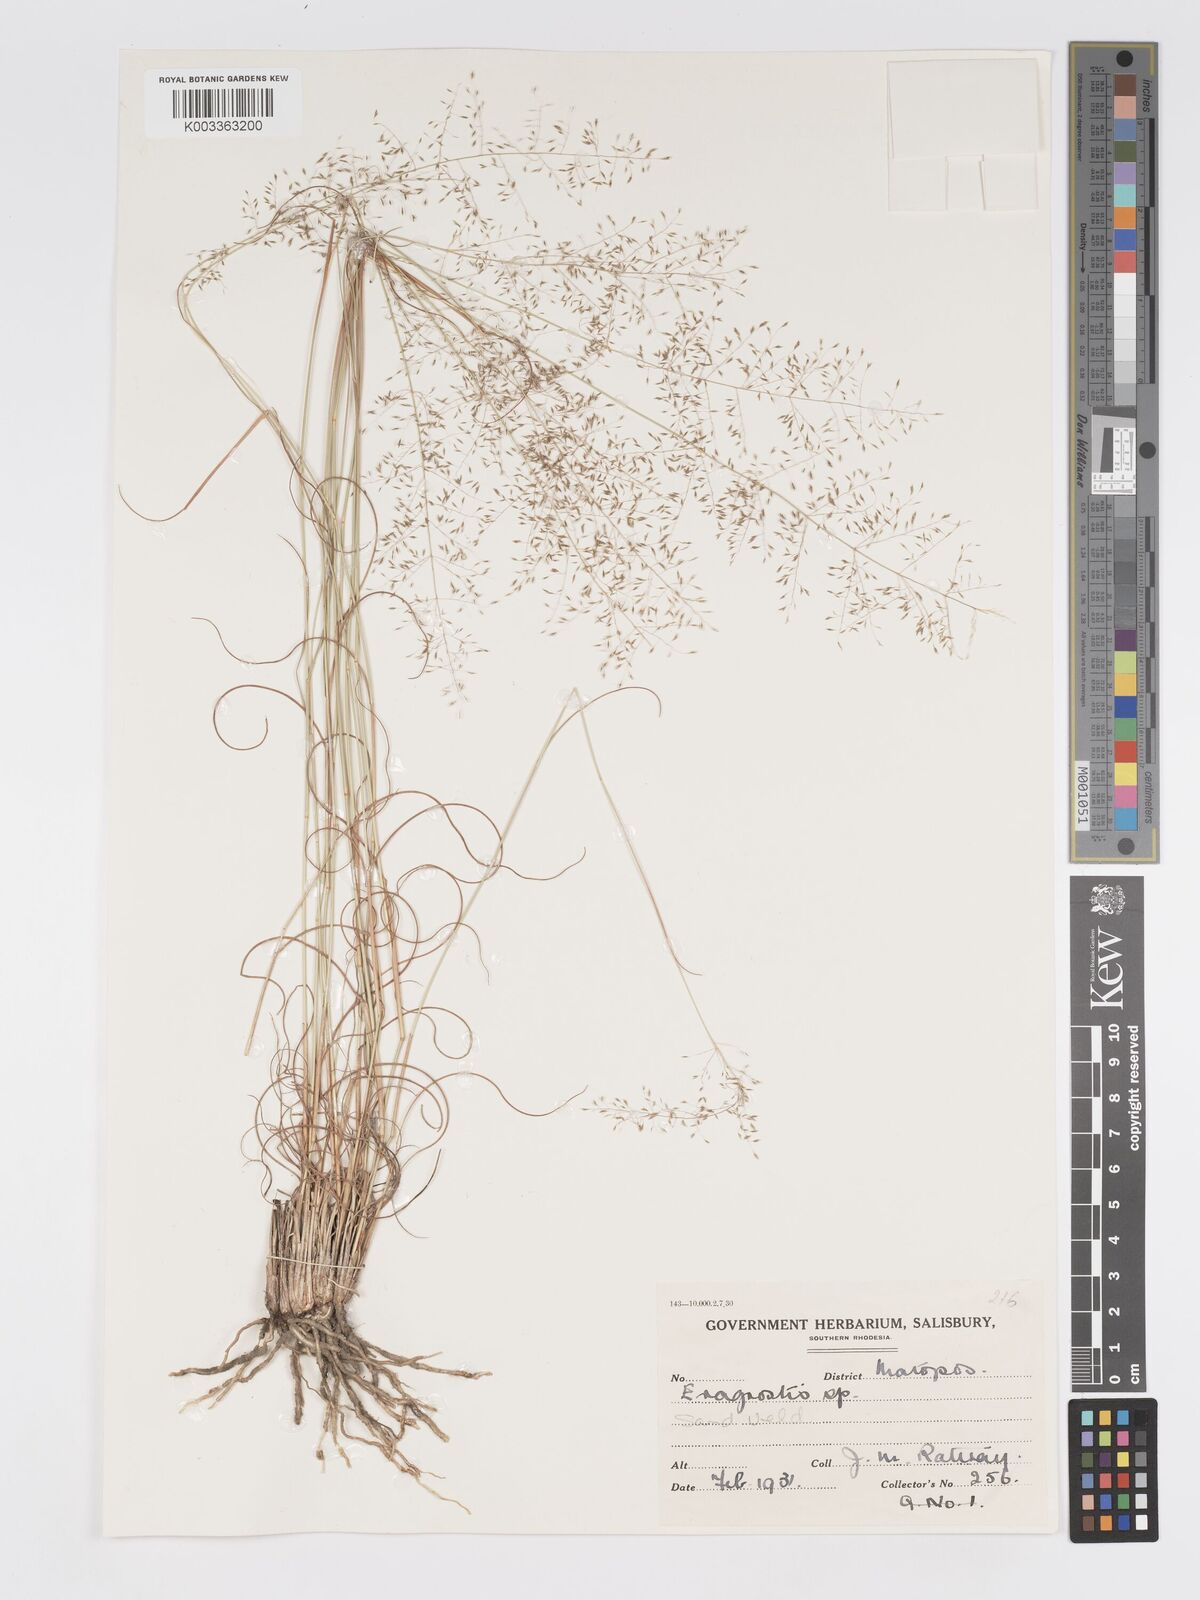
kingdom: Plantae
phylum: Tracheophyta
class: Liliopsida
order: Poales
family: Poaceae
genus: Eragrostis
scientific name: Eragrostis stapfii
